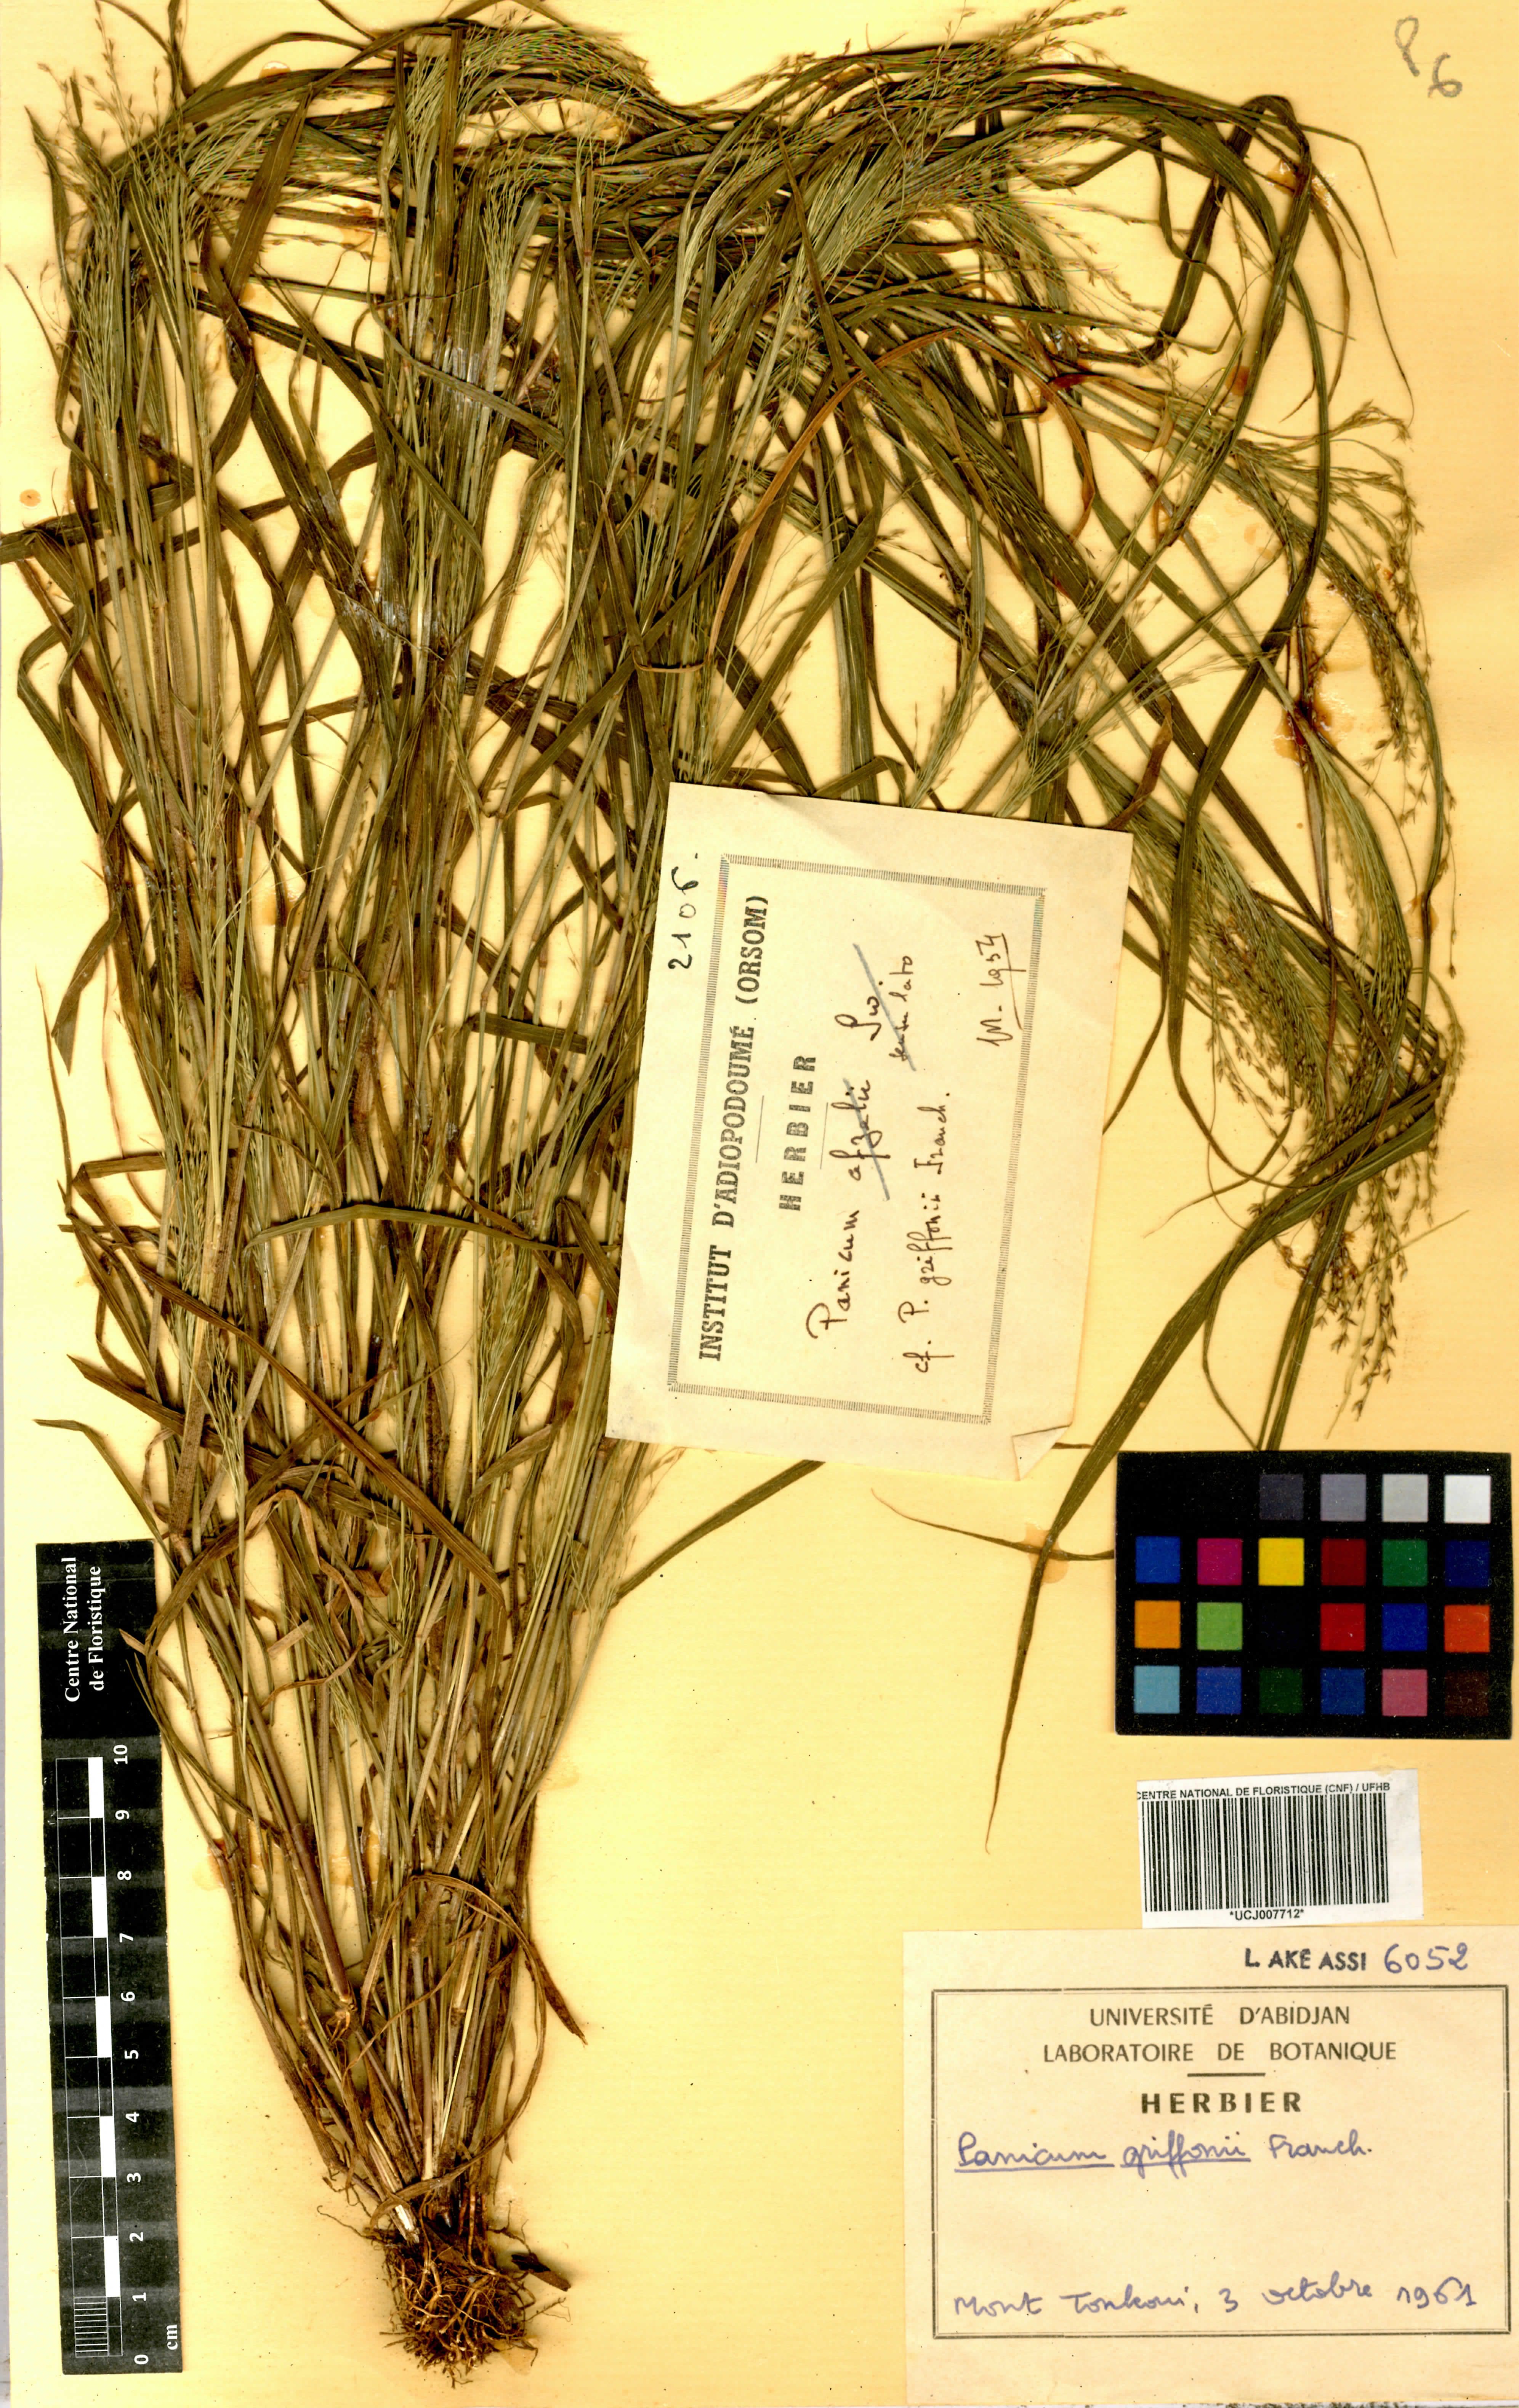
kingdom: Plantae
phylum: Tracheophyta
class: Liliopsida
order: Poales
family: Poaceae
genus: Panicum
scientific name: Panicum griffonii
